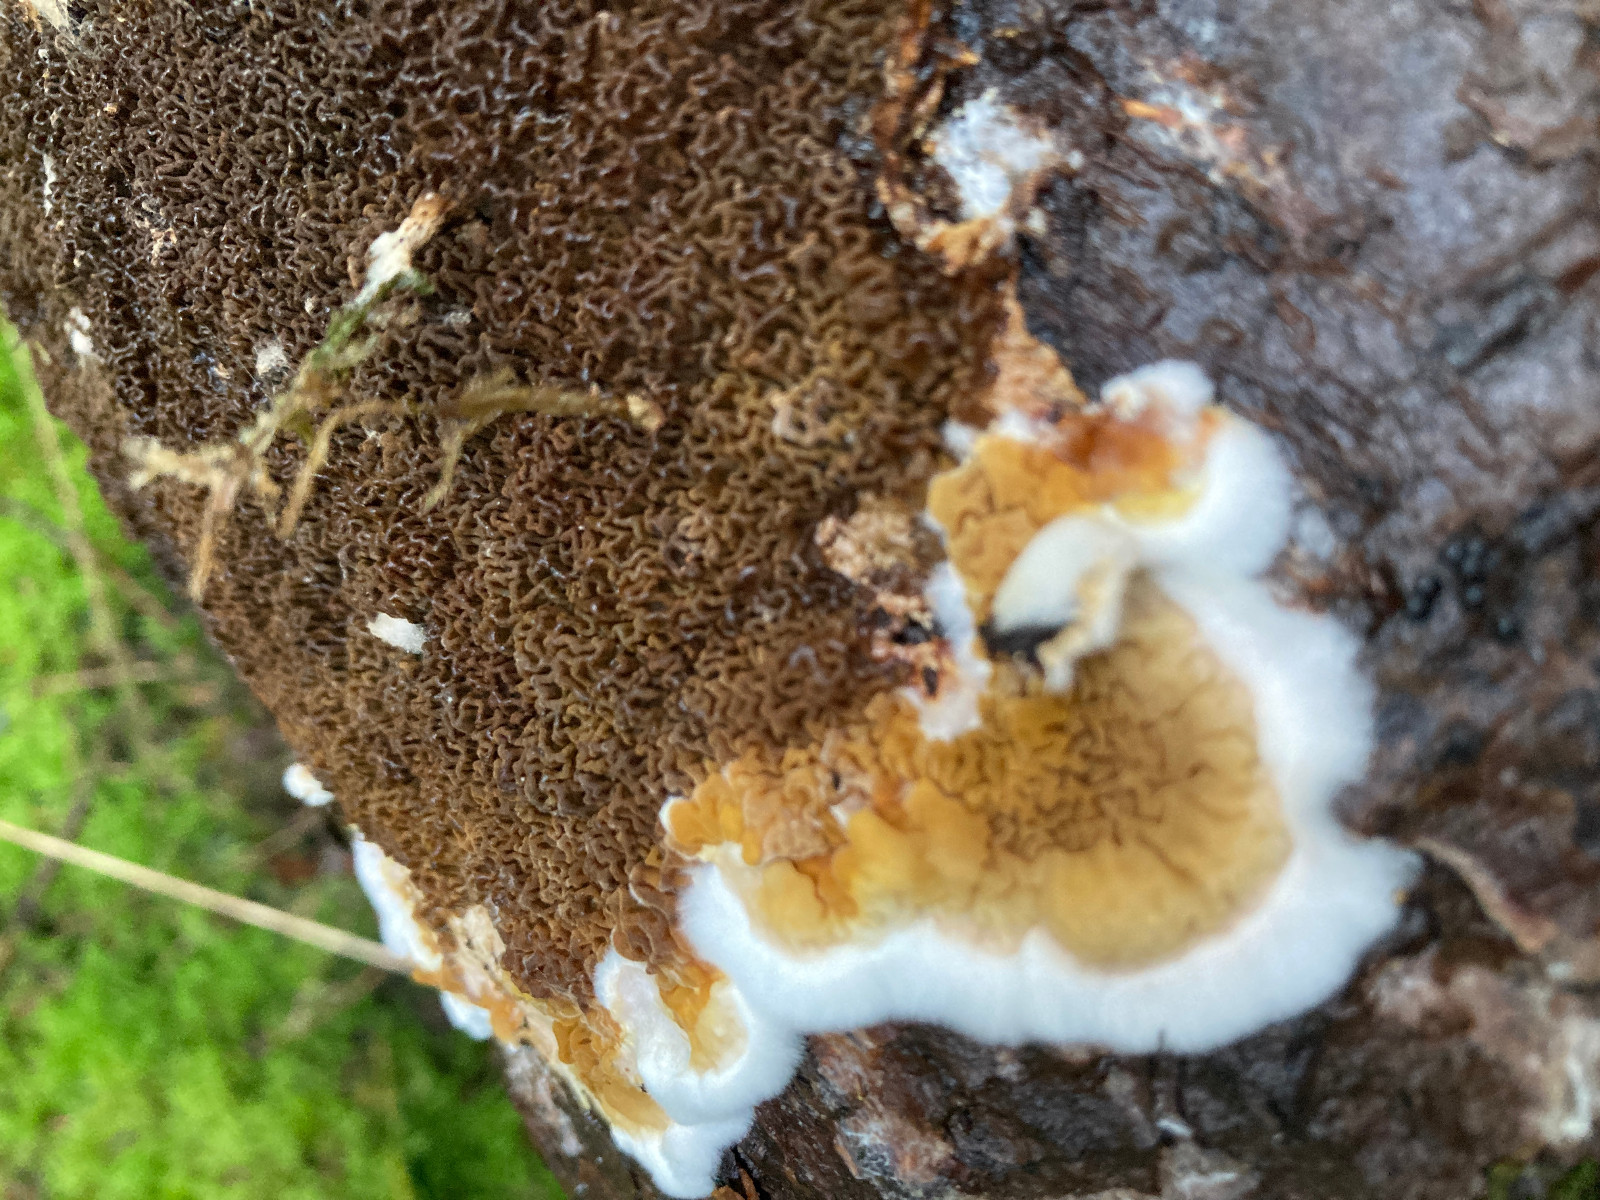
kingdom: Fungi
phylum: Basidiomycota
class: Agaricomycetes
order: Boletales
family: Serpulaceae
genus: Serpula
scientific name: Serpula himantioides
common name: tyndkødet hussvamp
